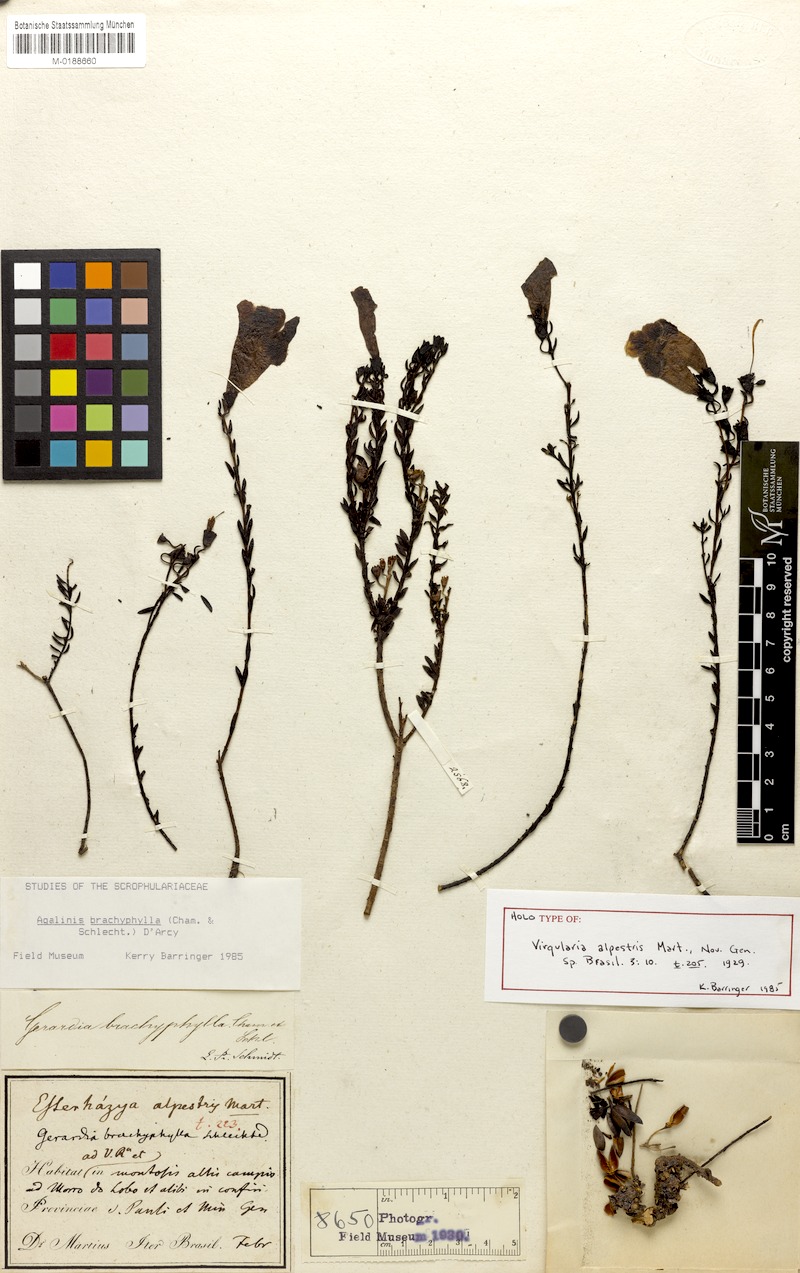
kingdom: Plantae
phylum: Tracheophyta
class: Magnoliopsida
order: Lamiales
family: Orobanchaceae
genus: Agalinis
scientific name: Agalinis brachyphylla
